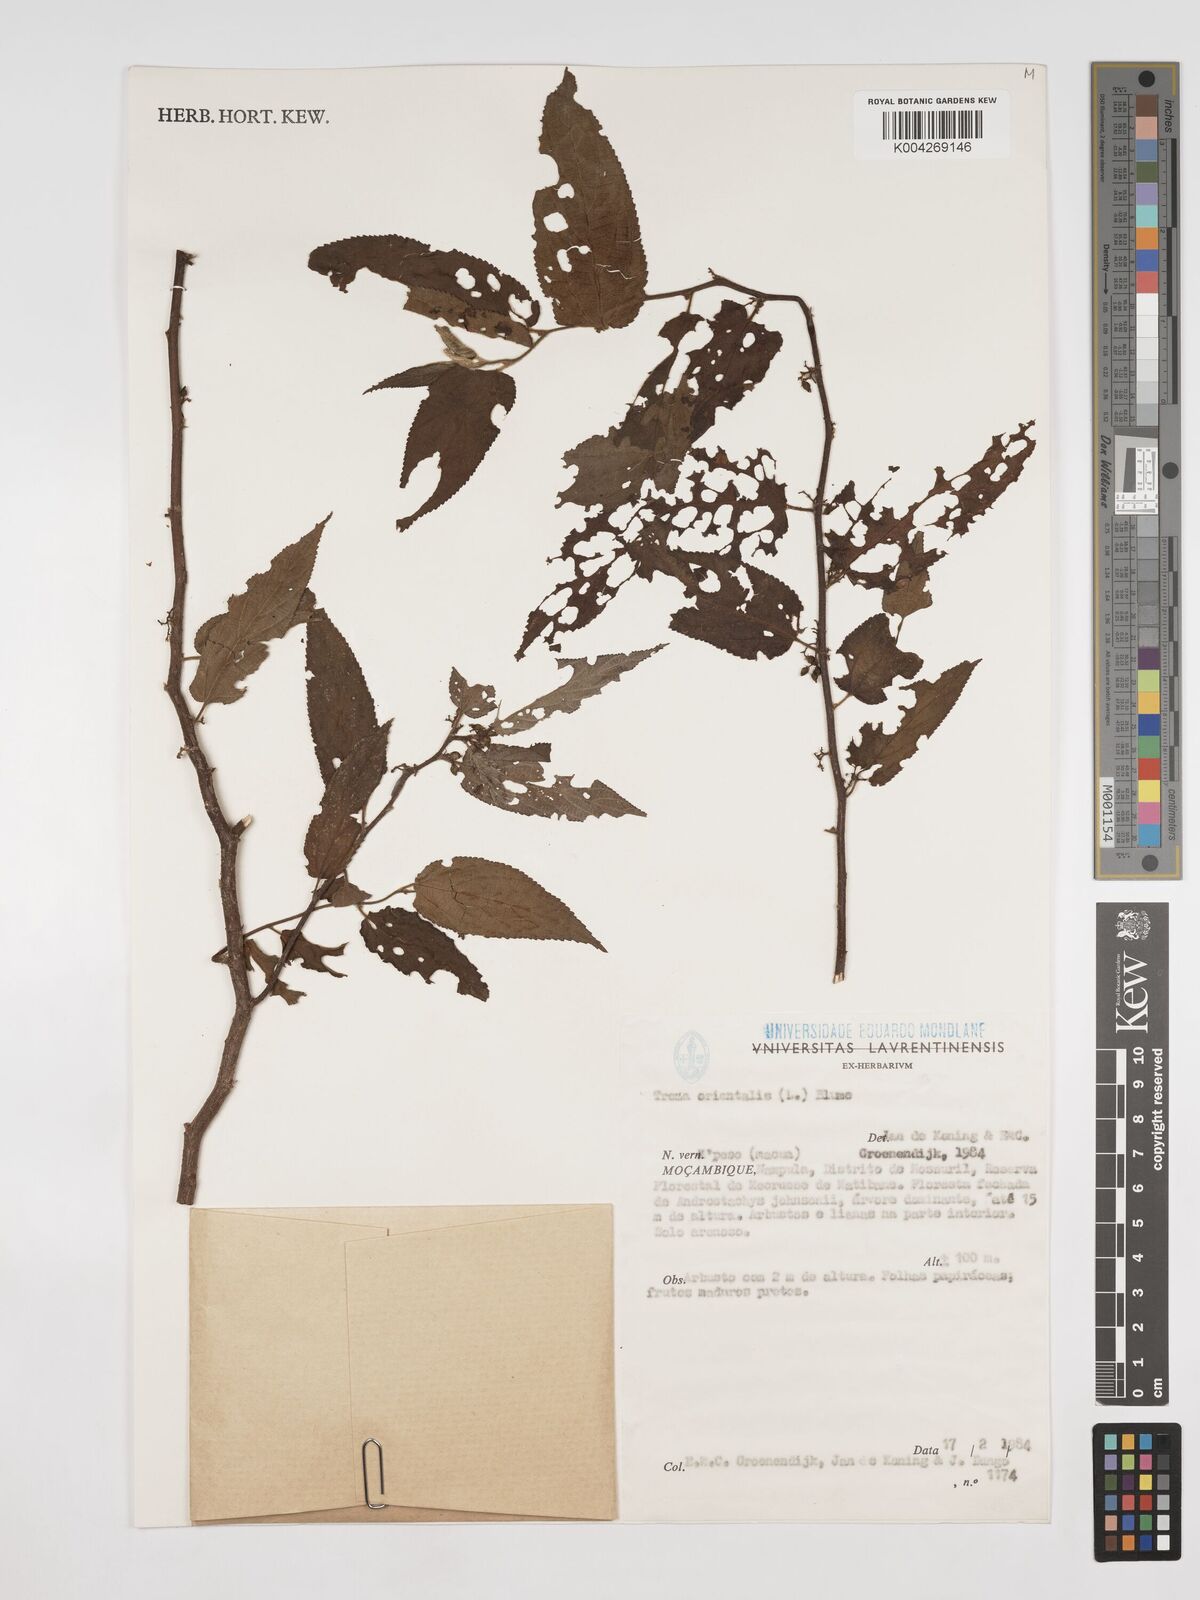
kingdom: Plantae
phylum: Tracheophyta
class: Magnoliopsida
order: Rosales
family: Cannabaceae
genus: Trema
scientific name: Trema orientale
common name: Indian charcoal tree
